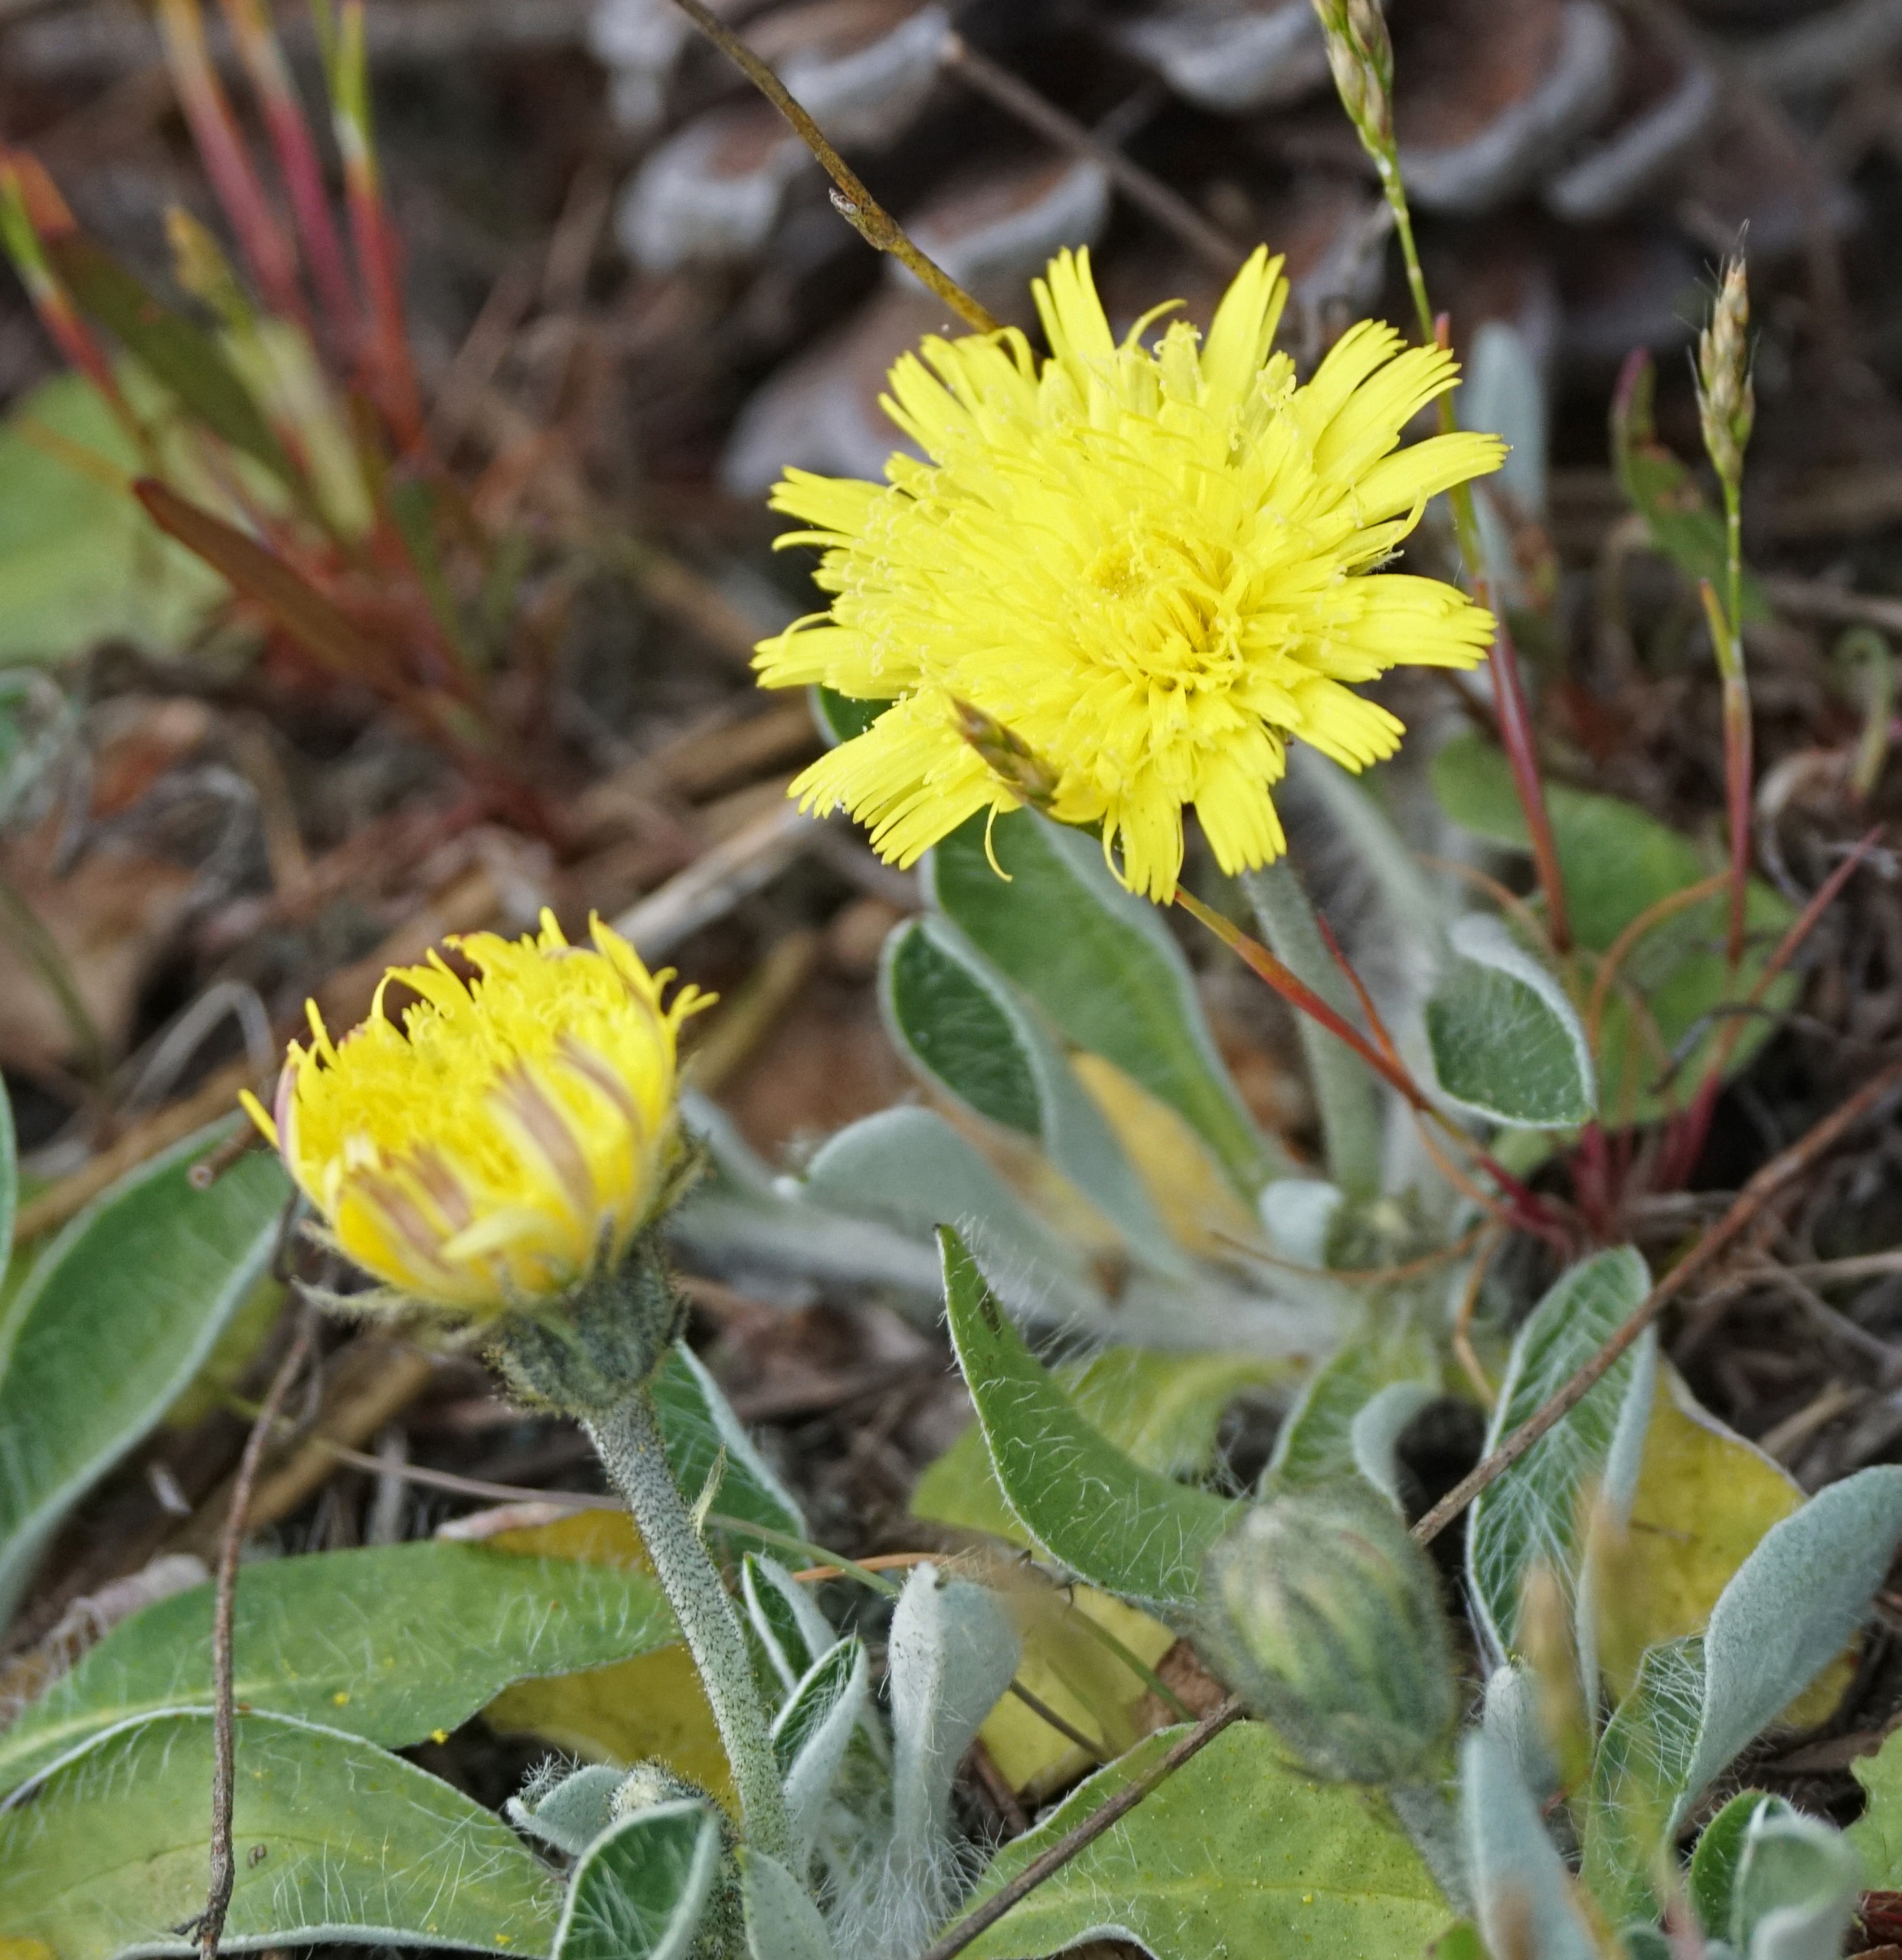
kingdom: Plantae
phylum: Tracheophyta
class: Magnoliopsida
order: Asterales
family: Asteraceae
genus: Pilosella
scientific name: Pilosella officinarum
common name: Håret høgeurt
